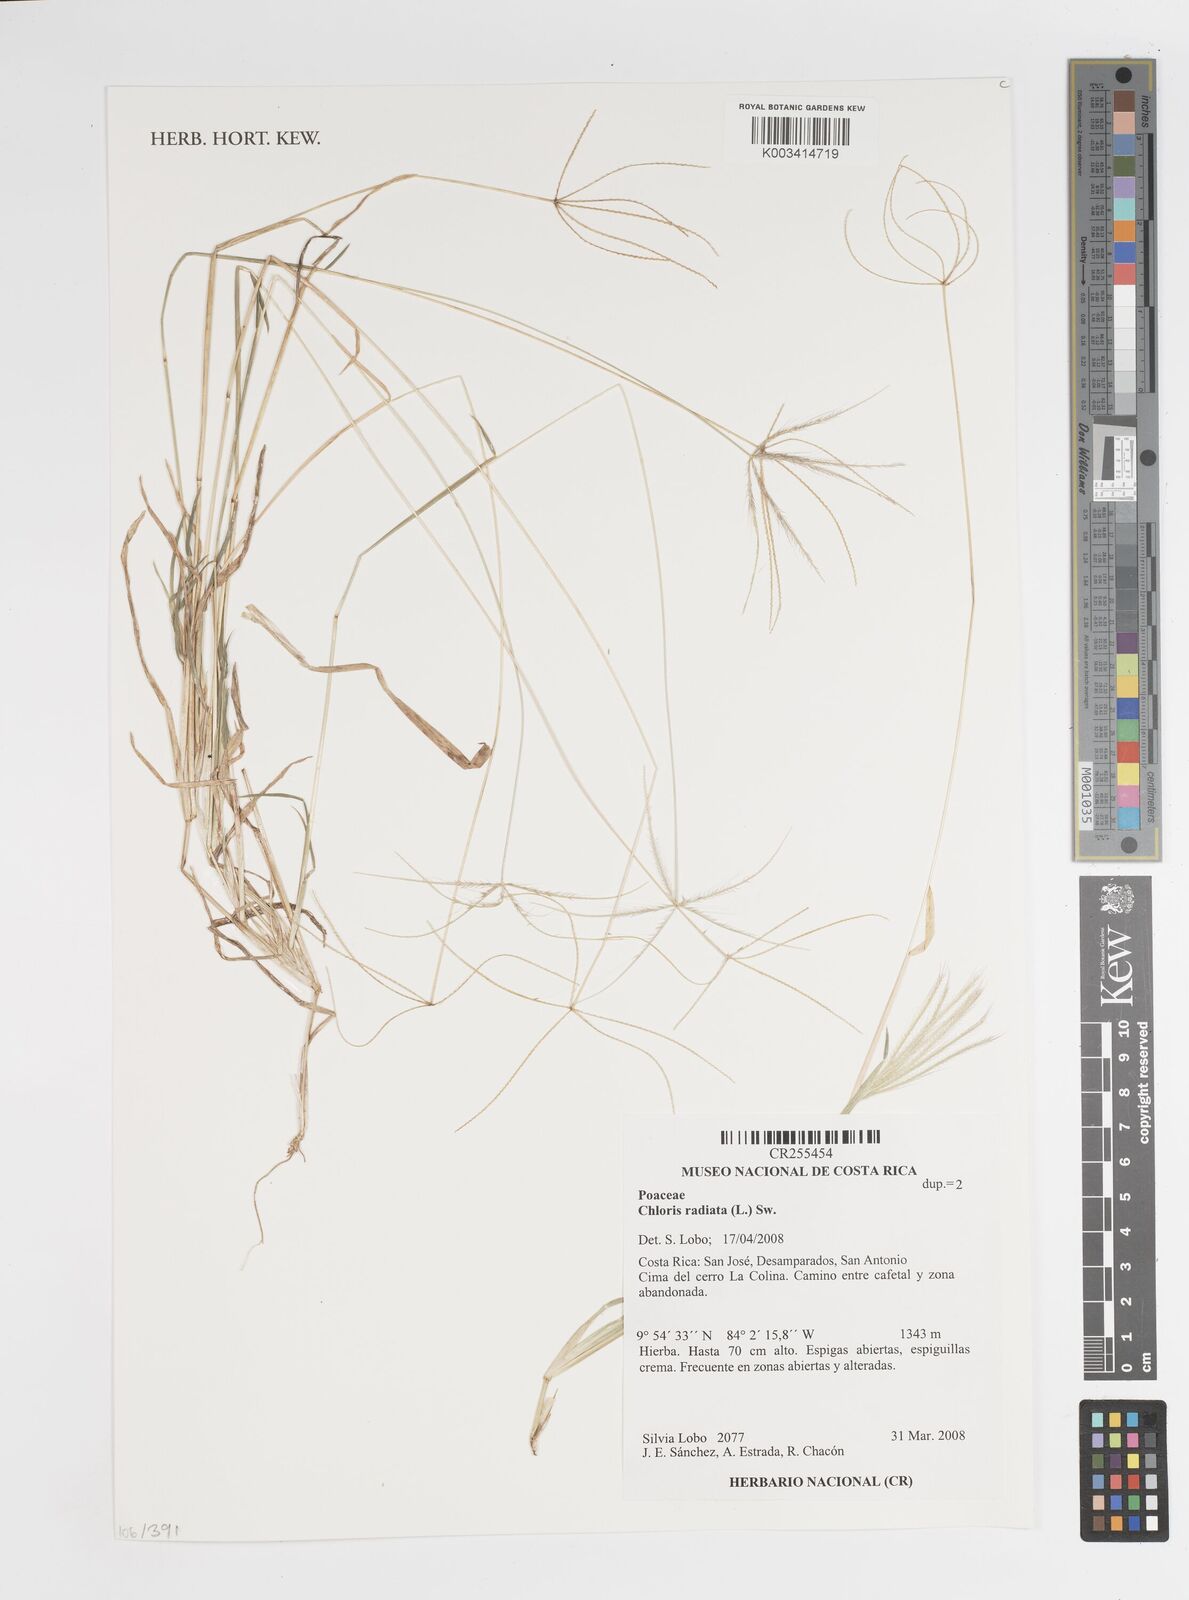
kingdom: Plantae
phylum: Tracheophyta
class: Liliopsida
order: Poales
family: Poaceae
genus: Chloris
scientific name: Chloris radiata
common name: Radiate fingergrass
